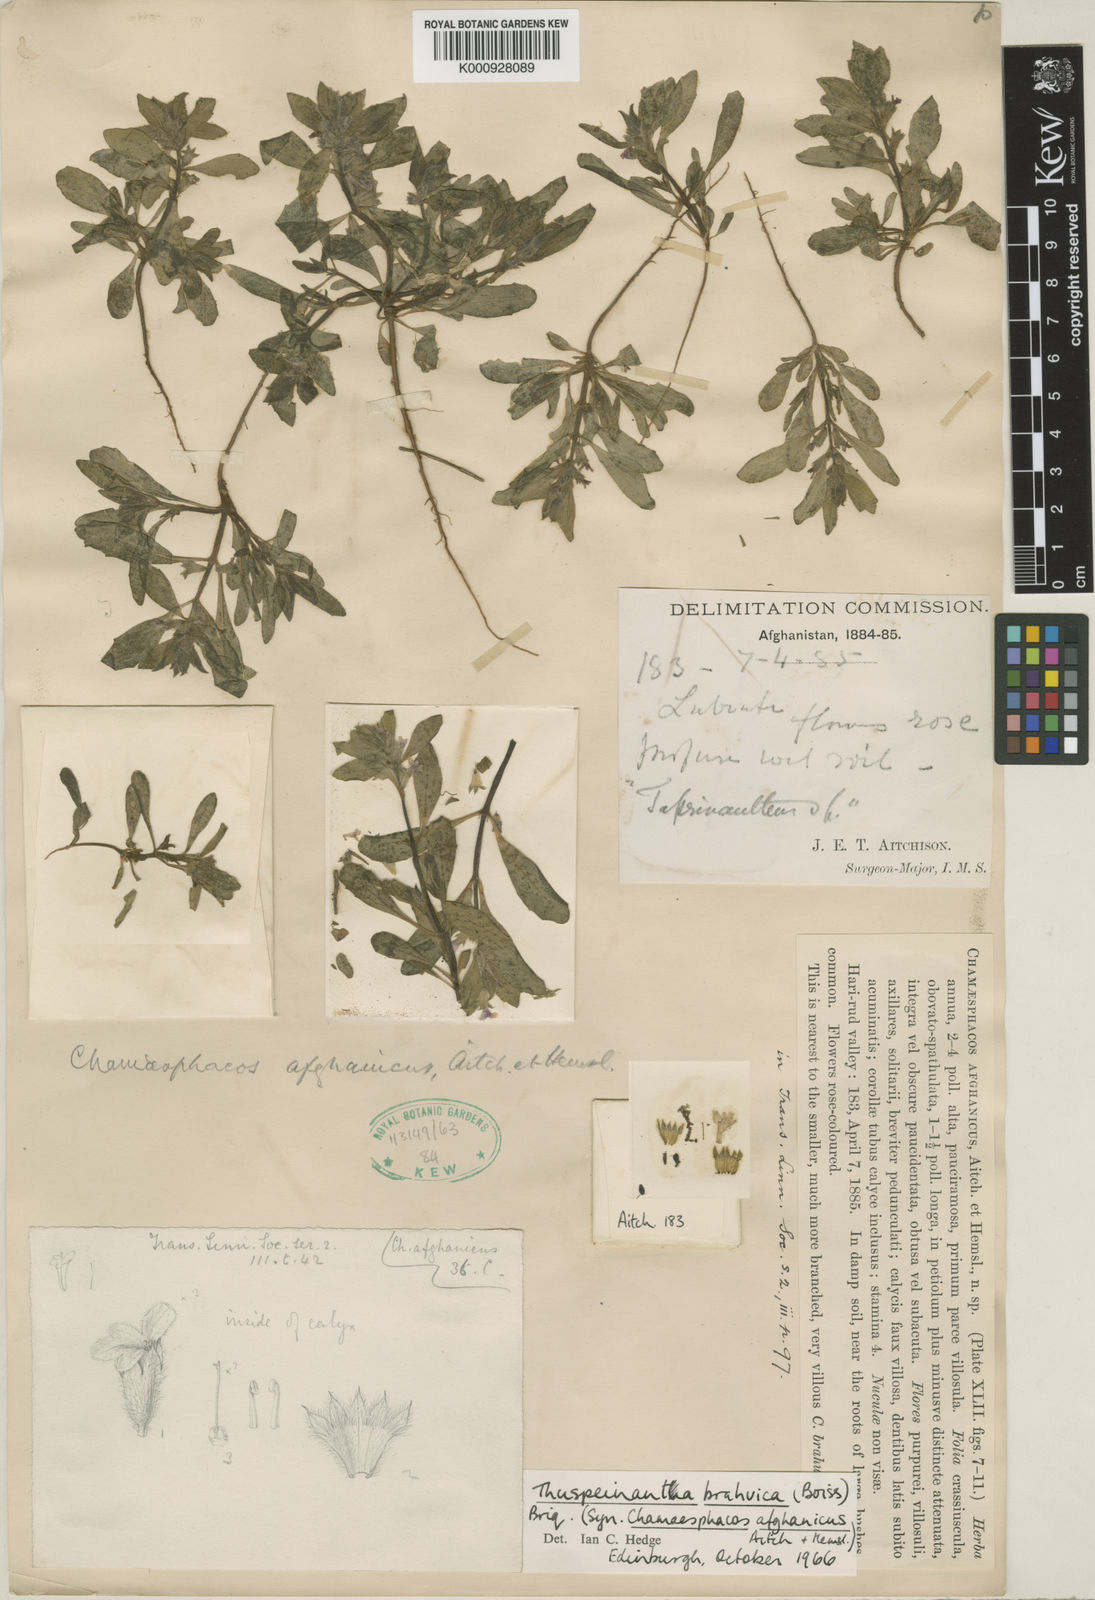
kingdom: Plantae
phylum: Tracheophyta
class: Magnoliopsida
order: Lamiales
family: Lamiaceae
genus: Thuspeinanta
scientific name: Thuspeinanta brahuica
